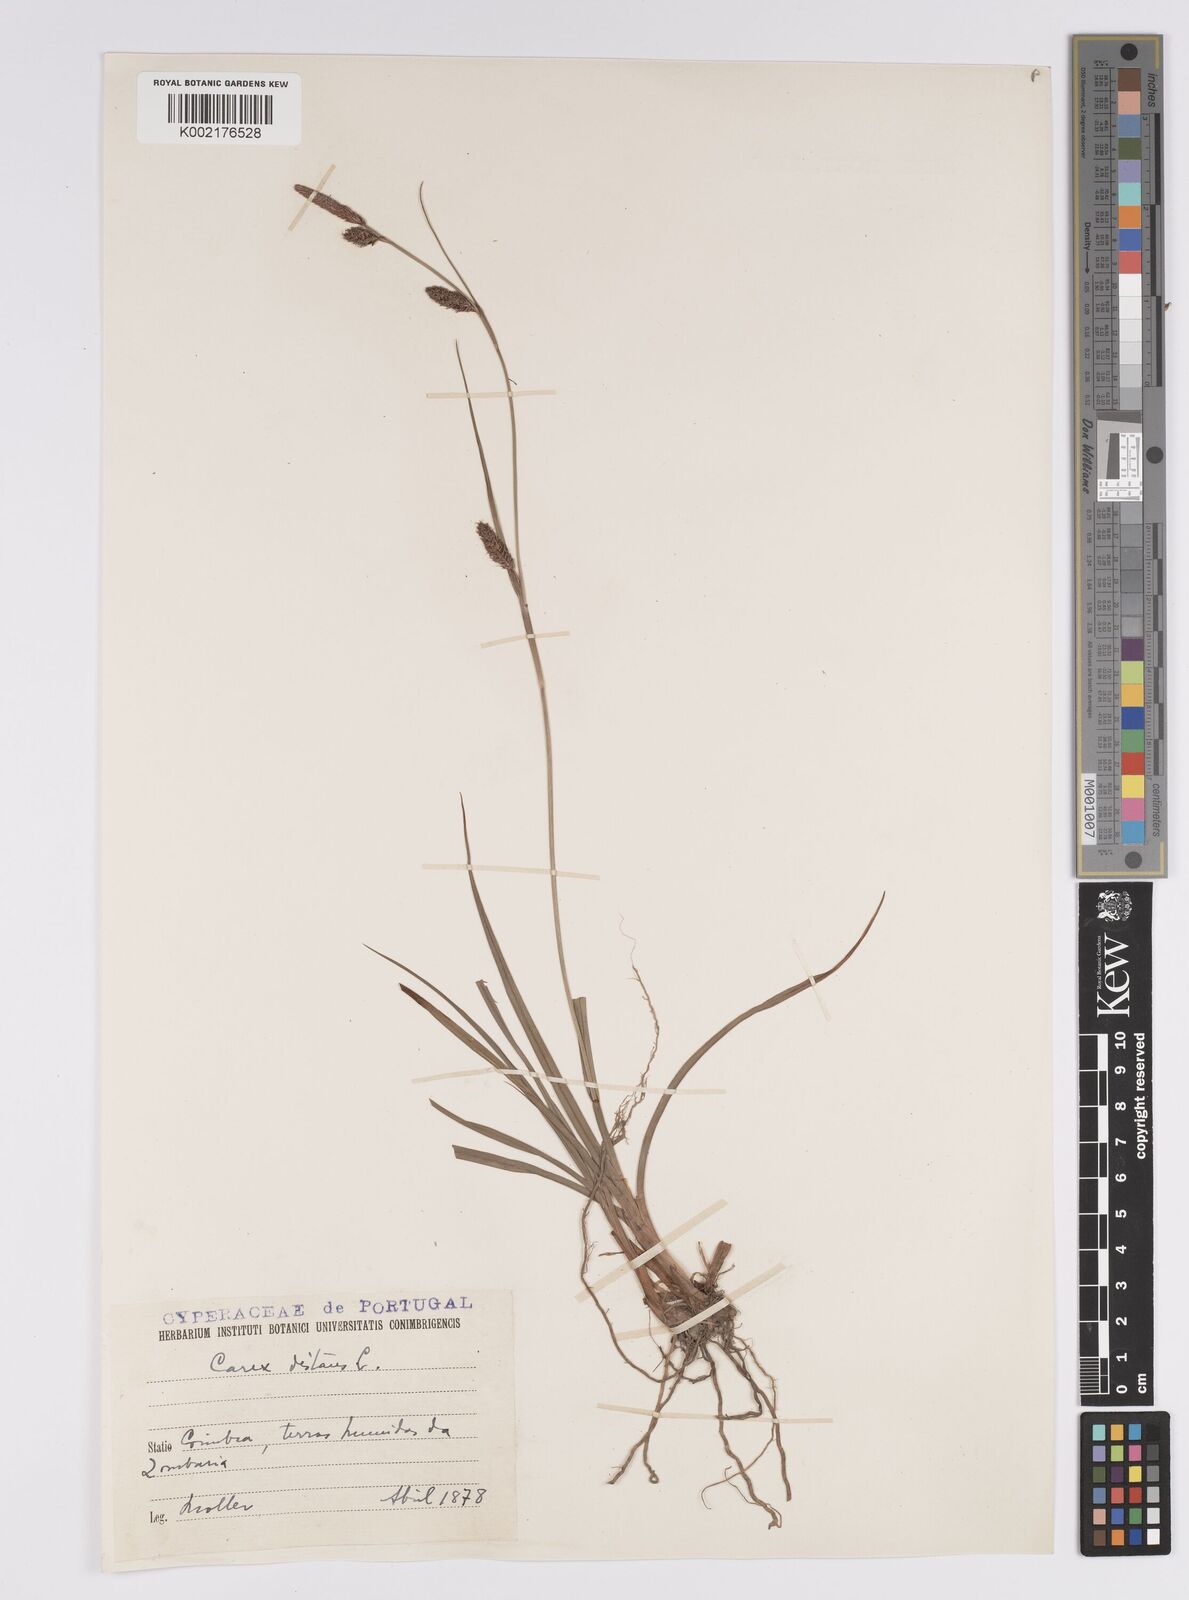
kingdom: Plantae
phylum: Tracheophyta
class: Liliopsida
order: Poales
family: Cyperaceae
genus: Carex
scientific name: Carex distans
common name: Distant sedge
